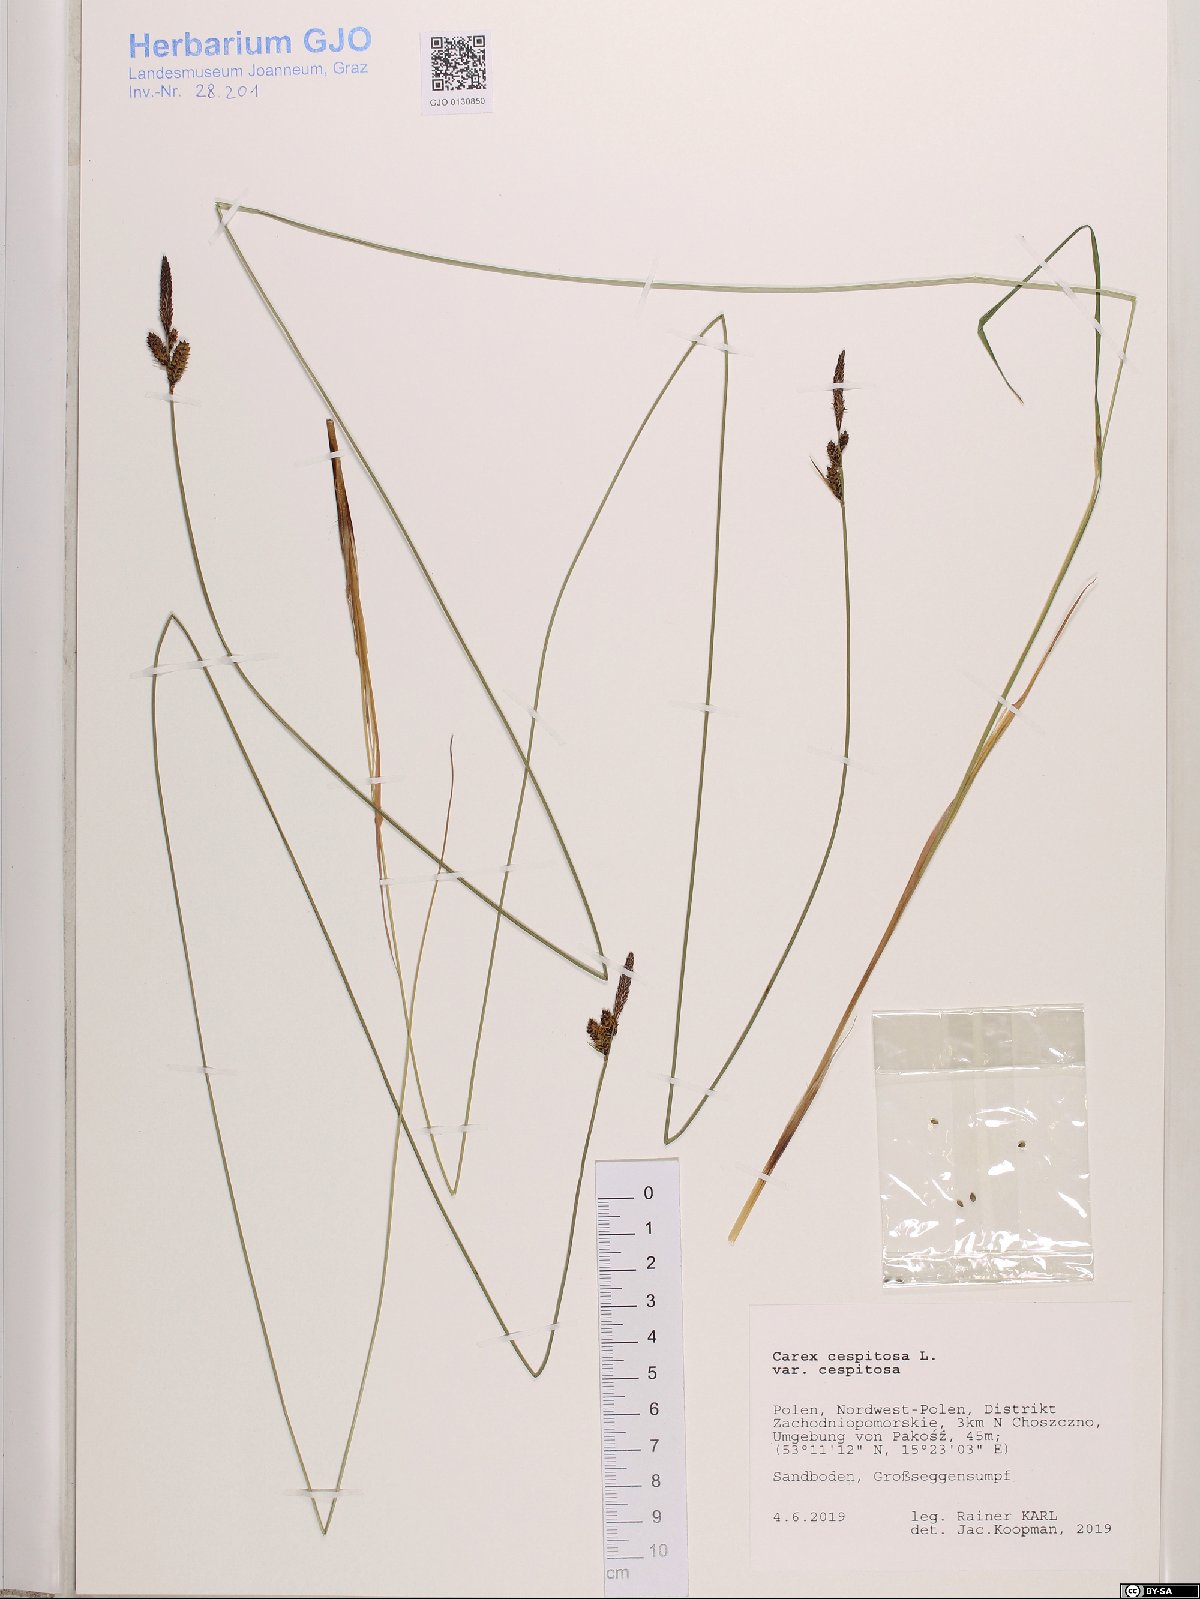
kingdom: Plantae
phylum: Tracheophyta
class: Liliopsida
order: Poales
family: Cyperaceae
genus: Carex
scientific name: Carex cespitosa
